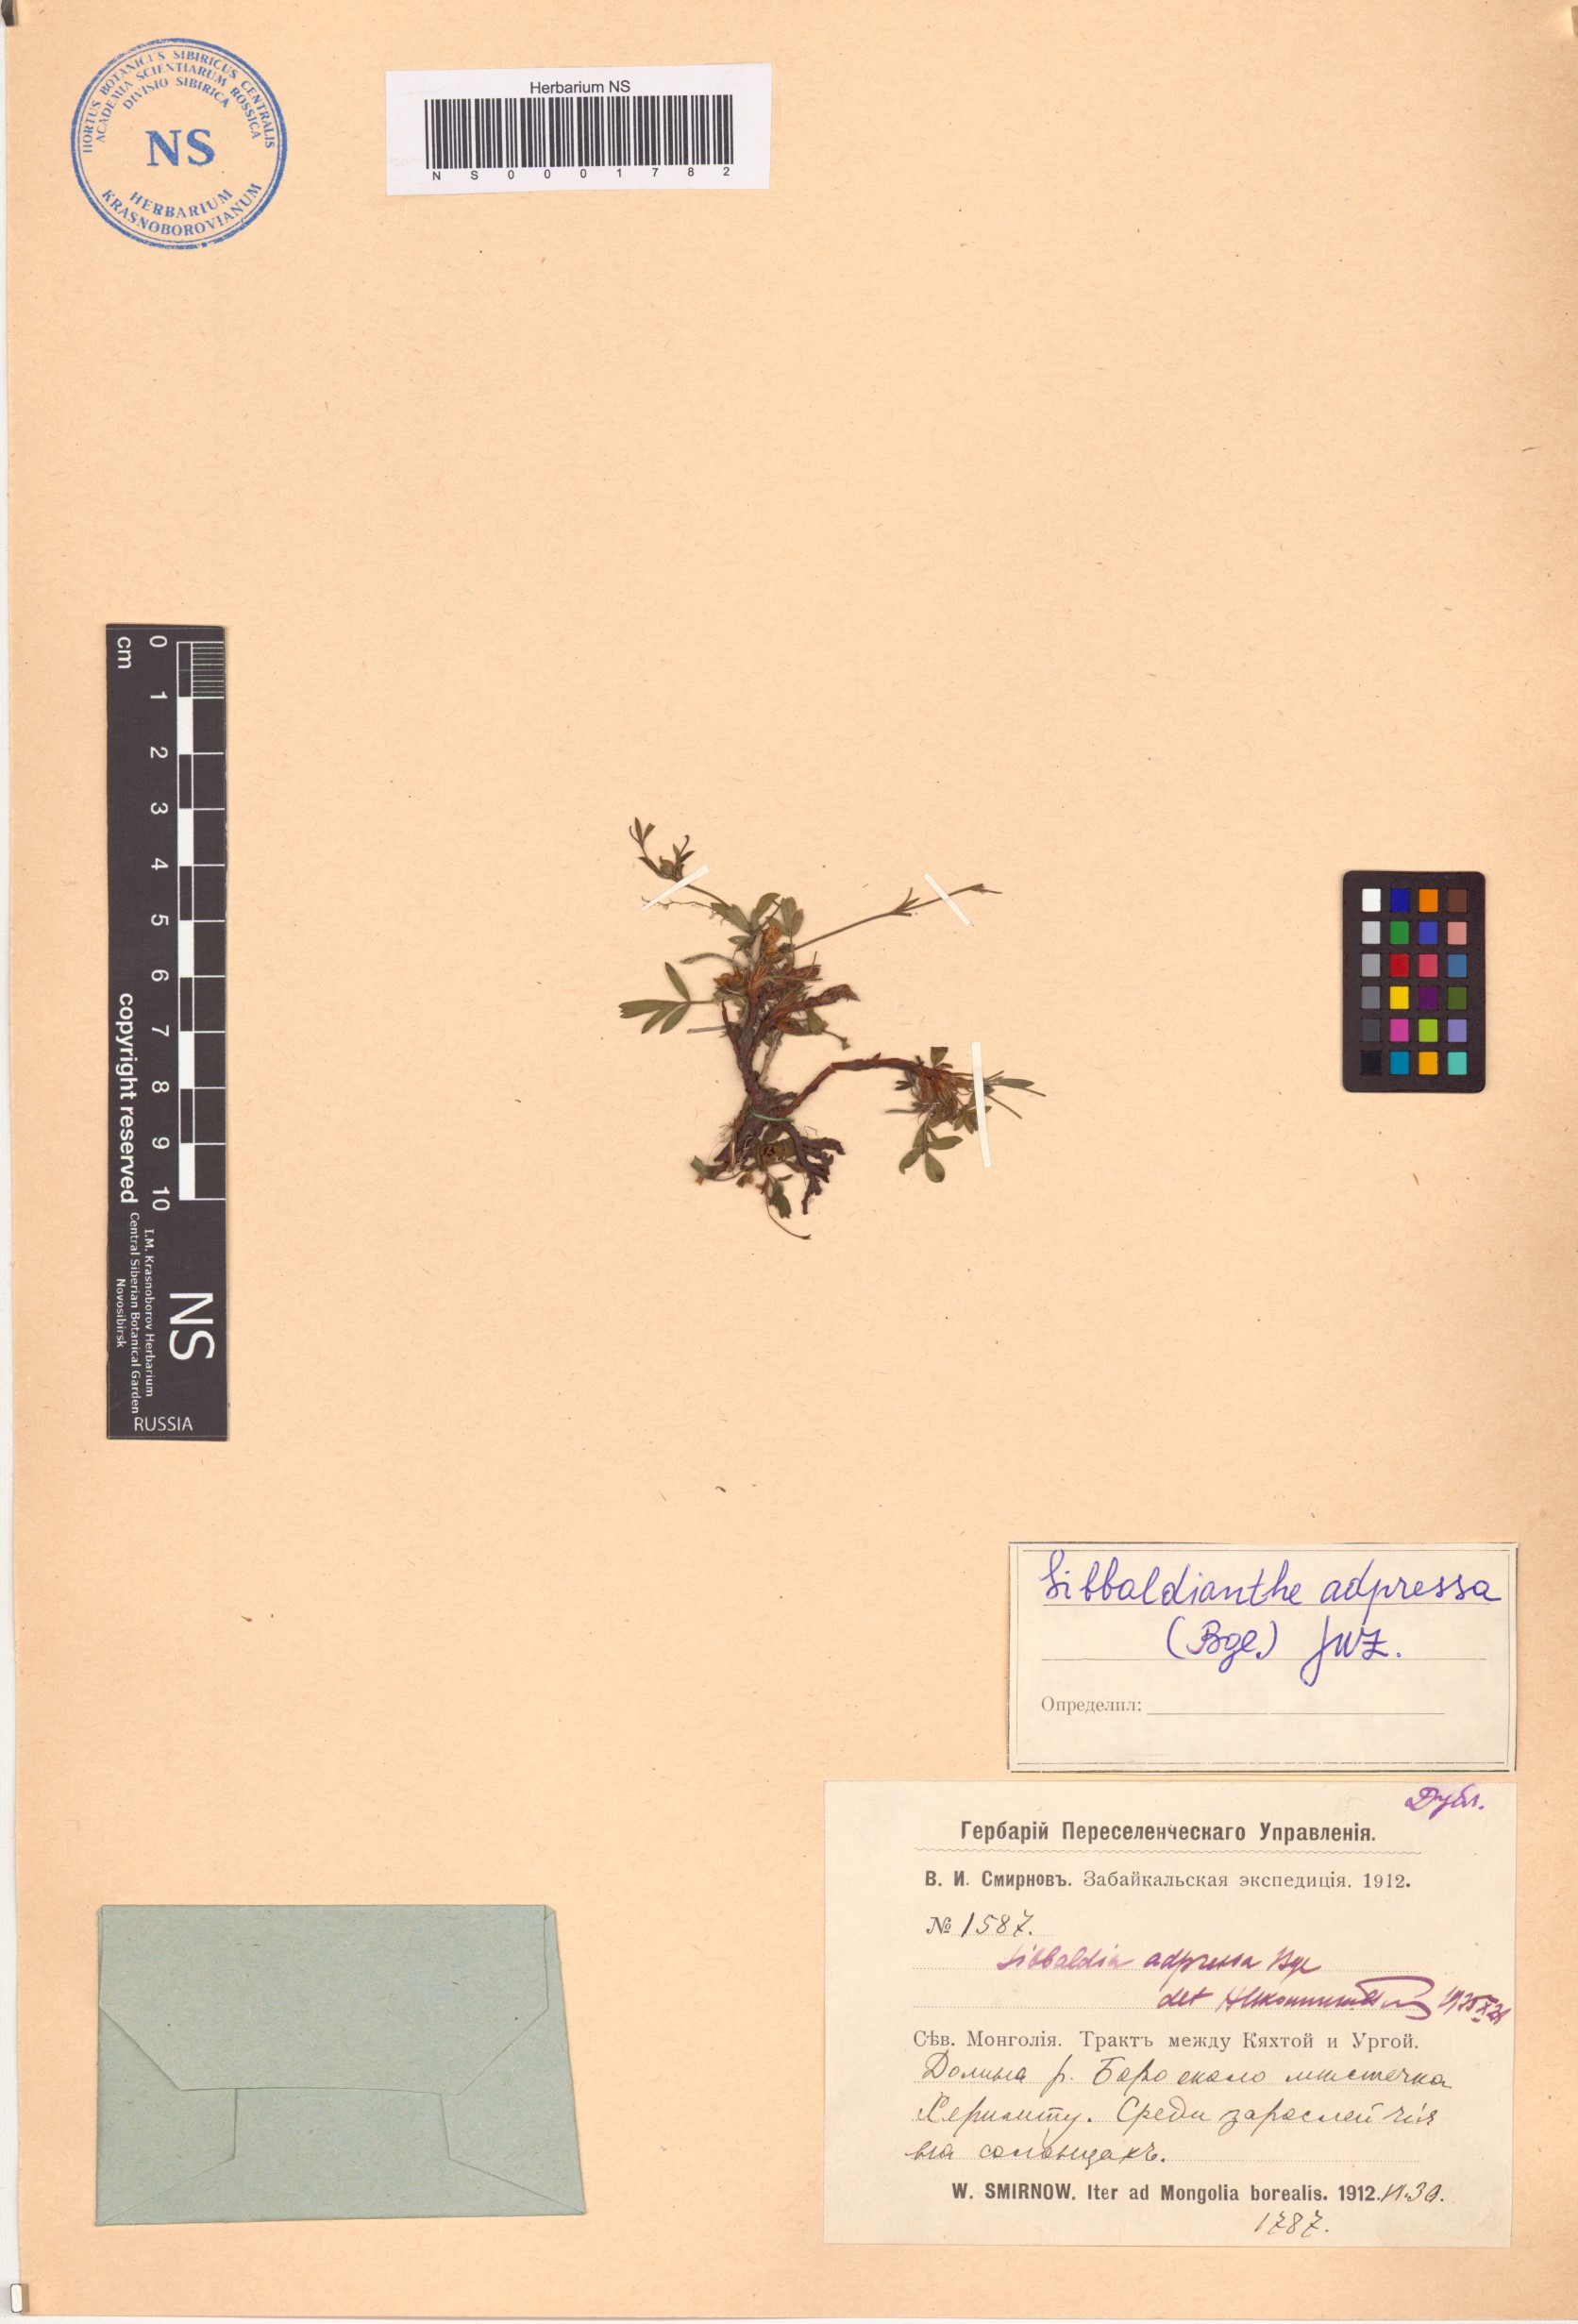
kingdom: Plantae
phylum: Tracheophyta
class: Magnoliopsida
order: Rosales
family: Rosaceae
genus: Sibbaldianthe
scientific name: Sibbaldianthe adpressa
